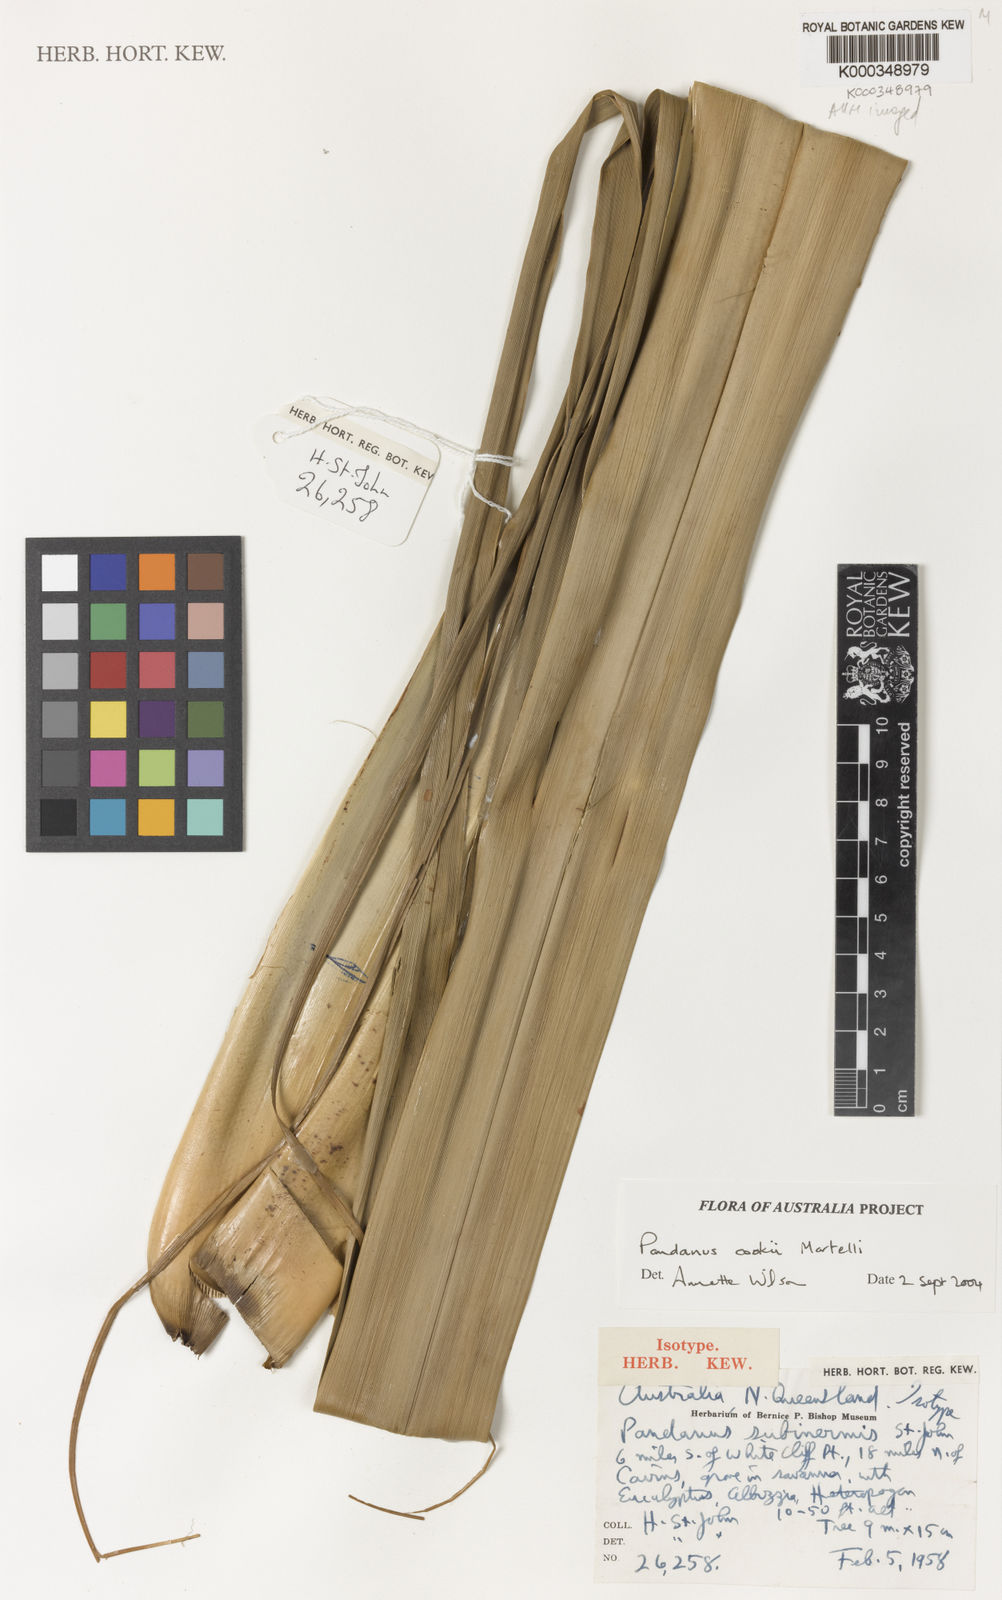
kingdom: Plantae
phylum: Tracheophyta
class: Liliopsida
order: Pandanales
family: Pandanaceae
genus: Pandanus
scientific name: Pandanus cookii
